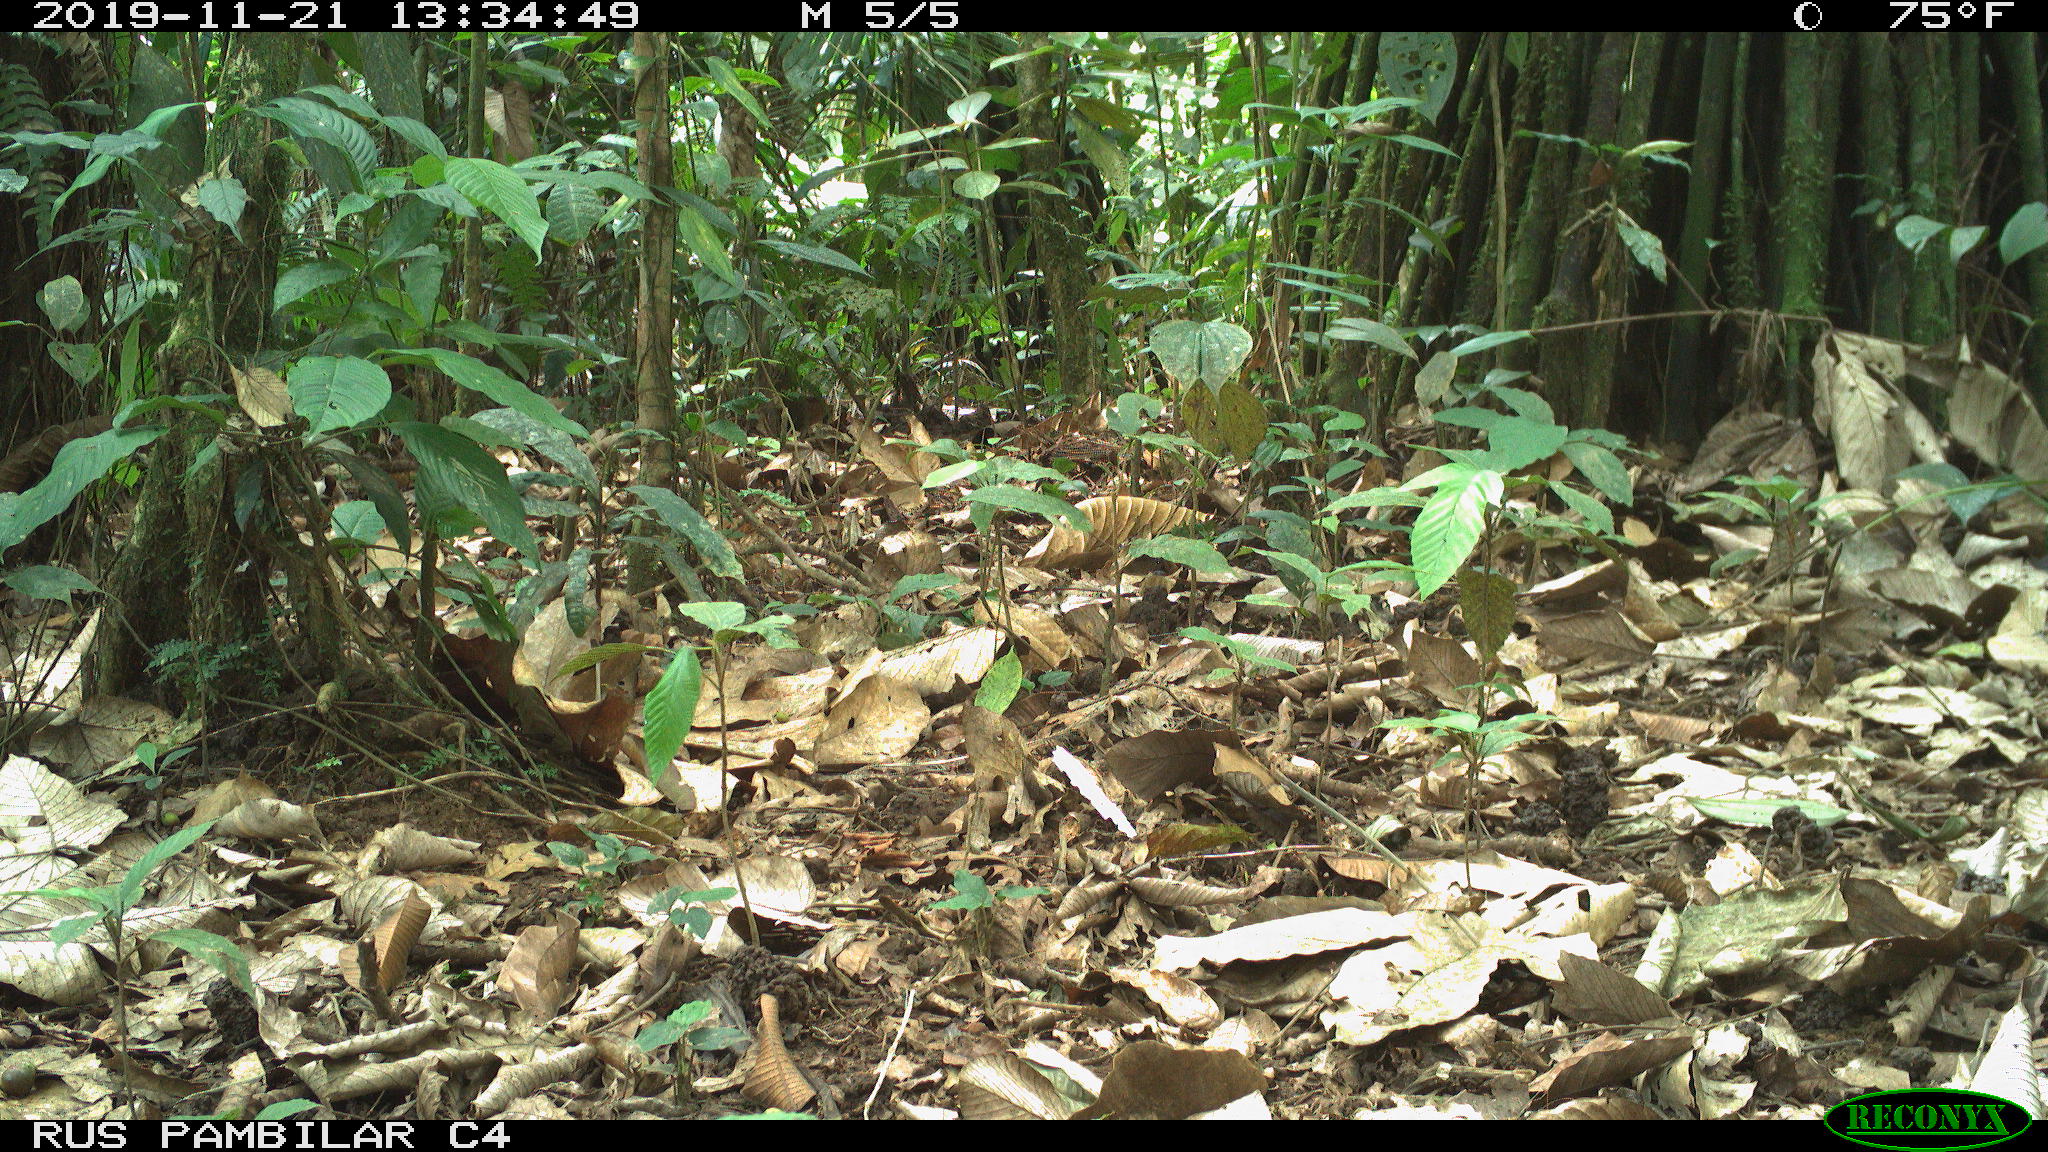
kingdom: Animalia
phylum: Chordata
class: Mammalia
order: Rodentia
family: Dasyproctidae
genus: Dasyprocta
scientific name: Dasyprocta punctata
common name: Central american agouti
